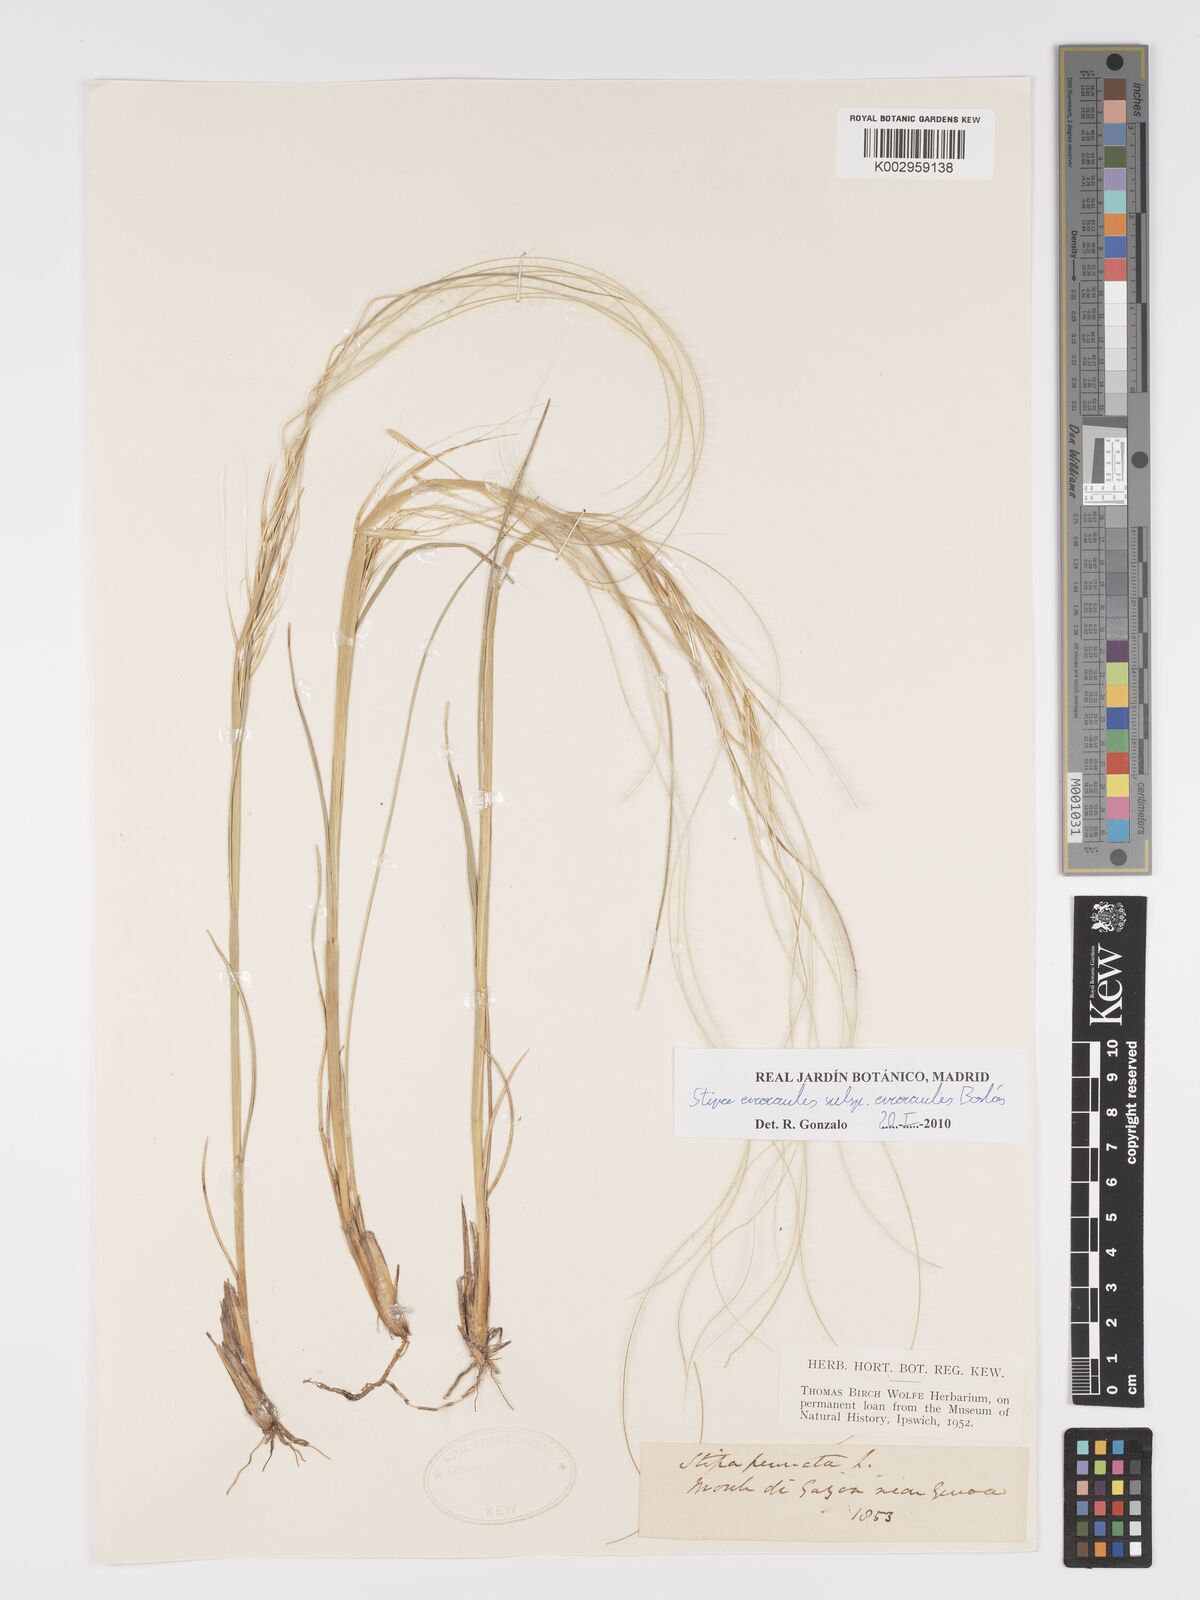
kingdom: Plantae
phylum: Tracheophyta
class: Liliopsida
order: Poales
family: Poaceae
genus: Stipa
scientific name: Stipa pennata
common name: European feather grass
